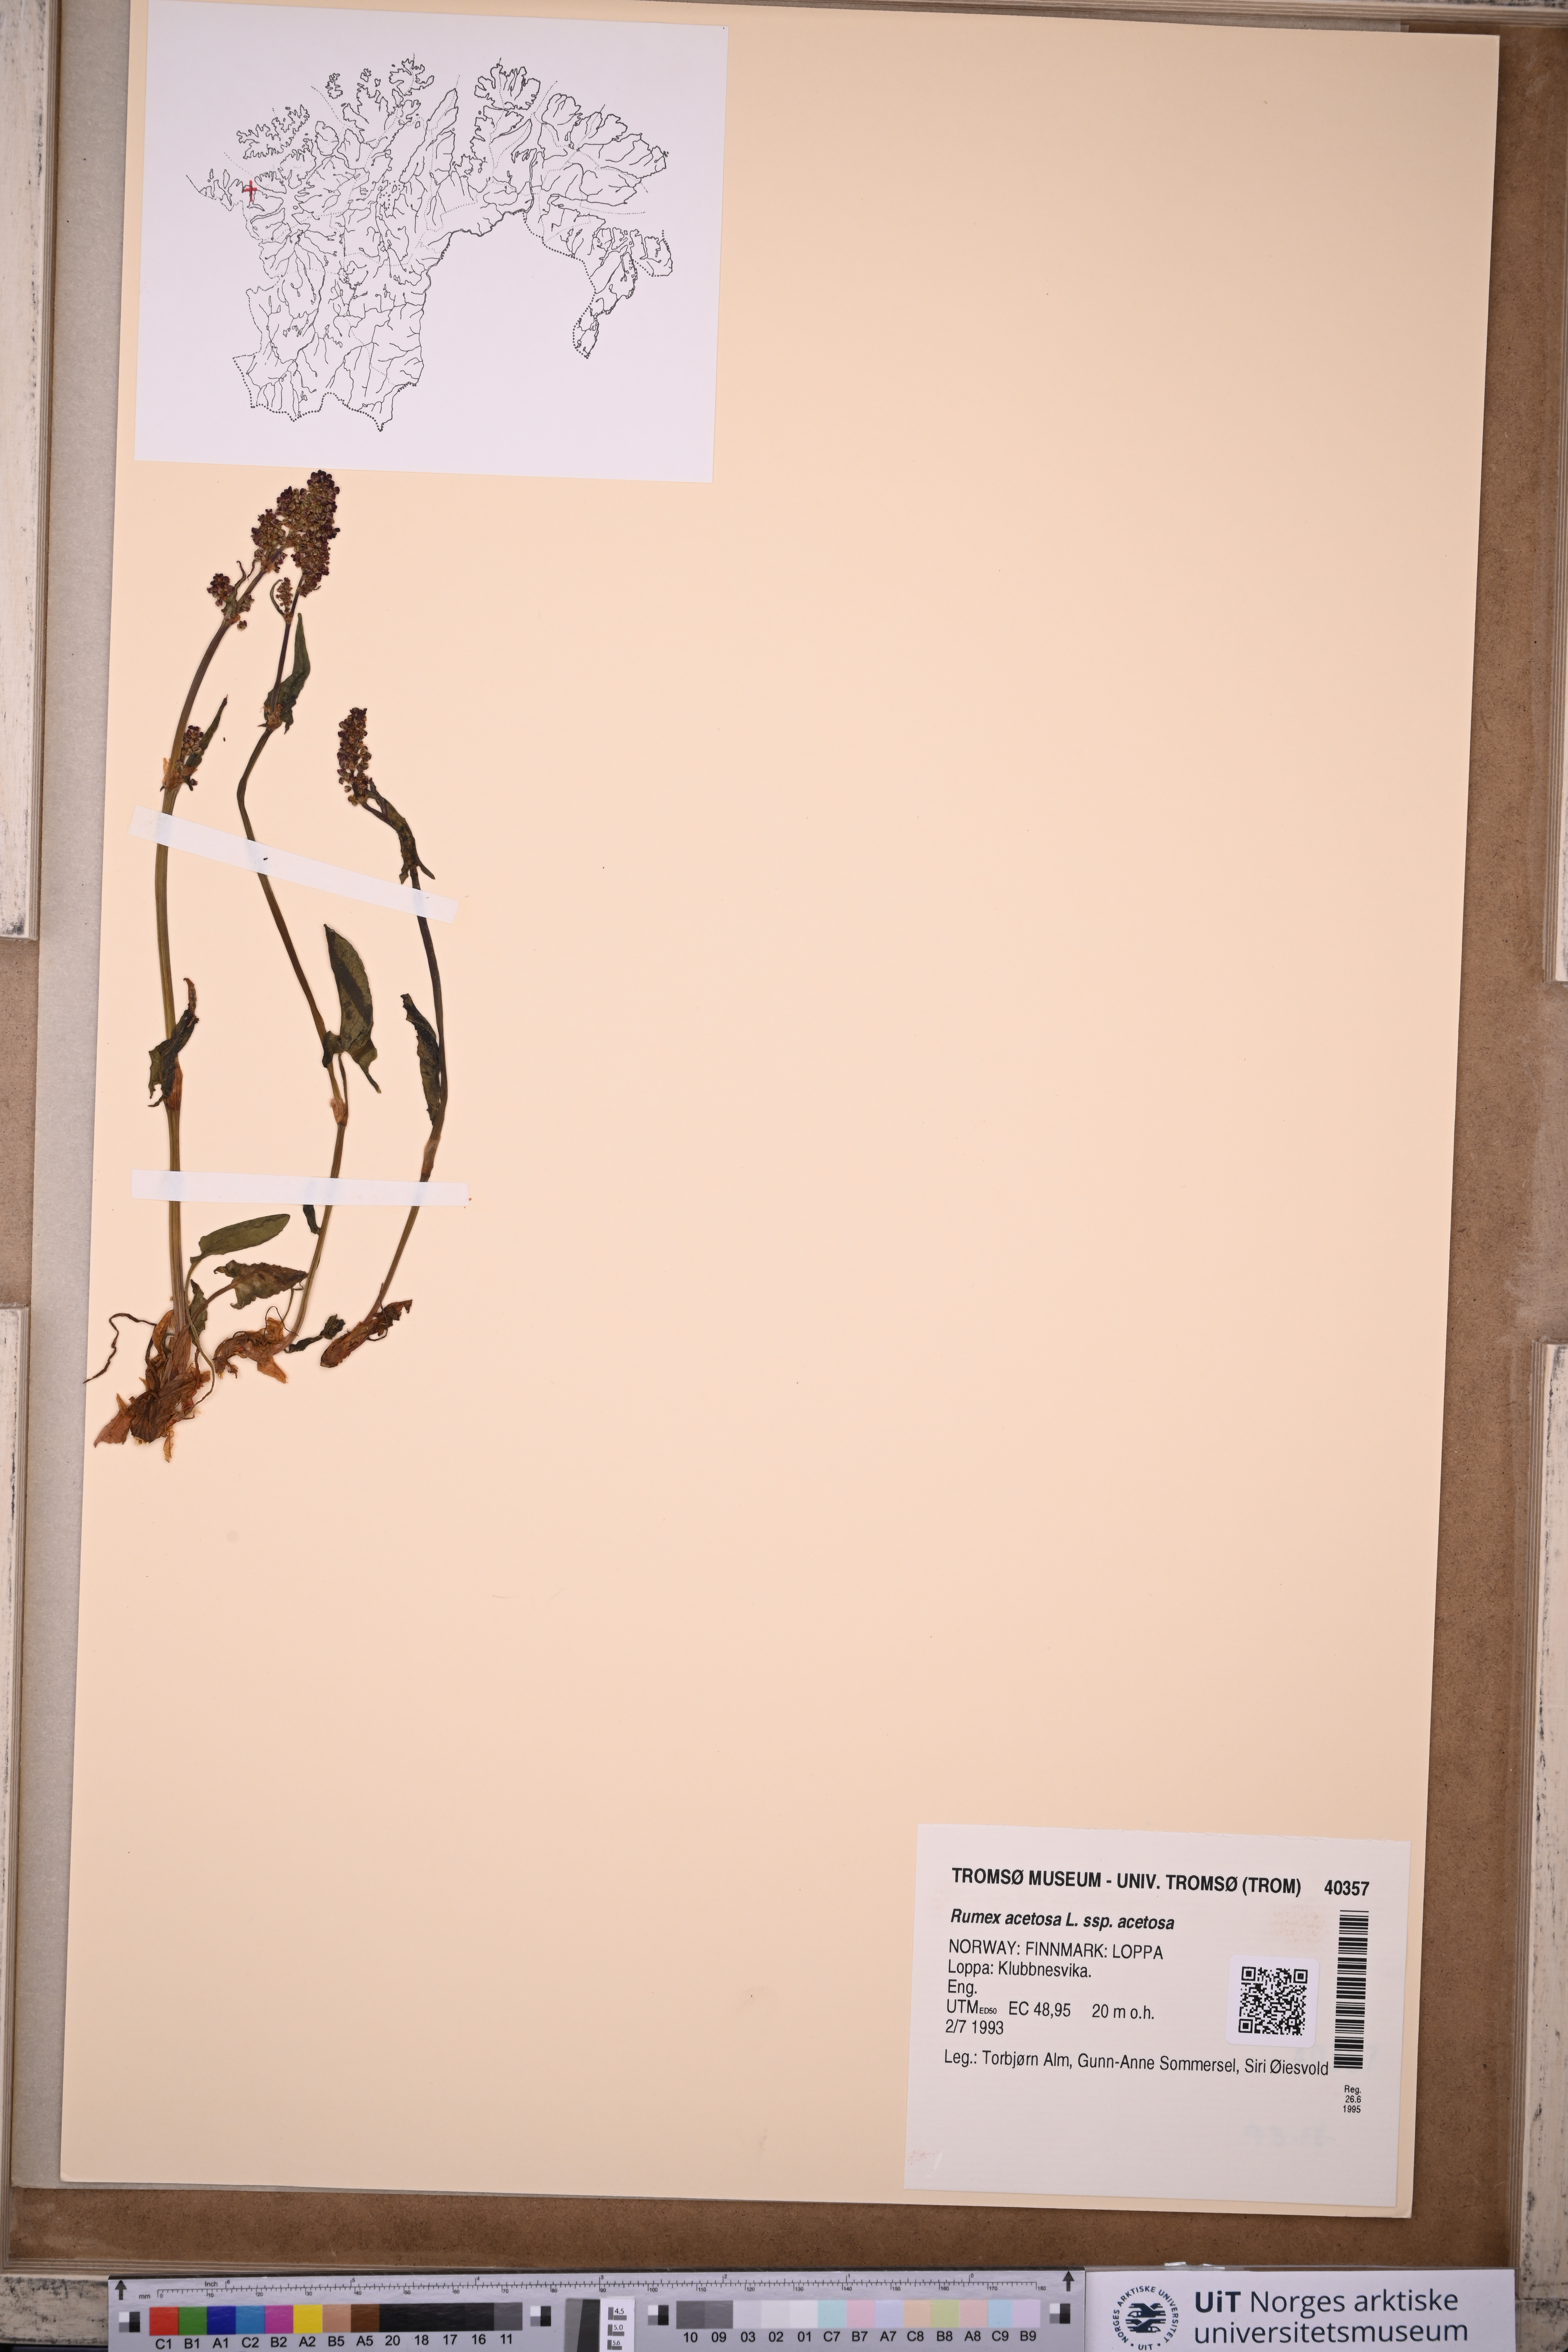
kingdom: Plantae
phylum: Tracheophyta
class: Magnoliopsida
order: Caryophyllales
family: Polygonaceae
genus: Rumex
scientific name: Rumex acetosa
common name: Garden sorrel
